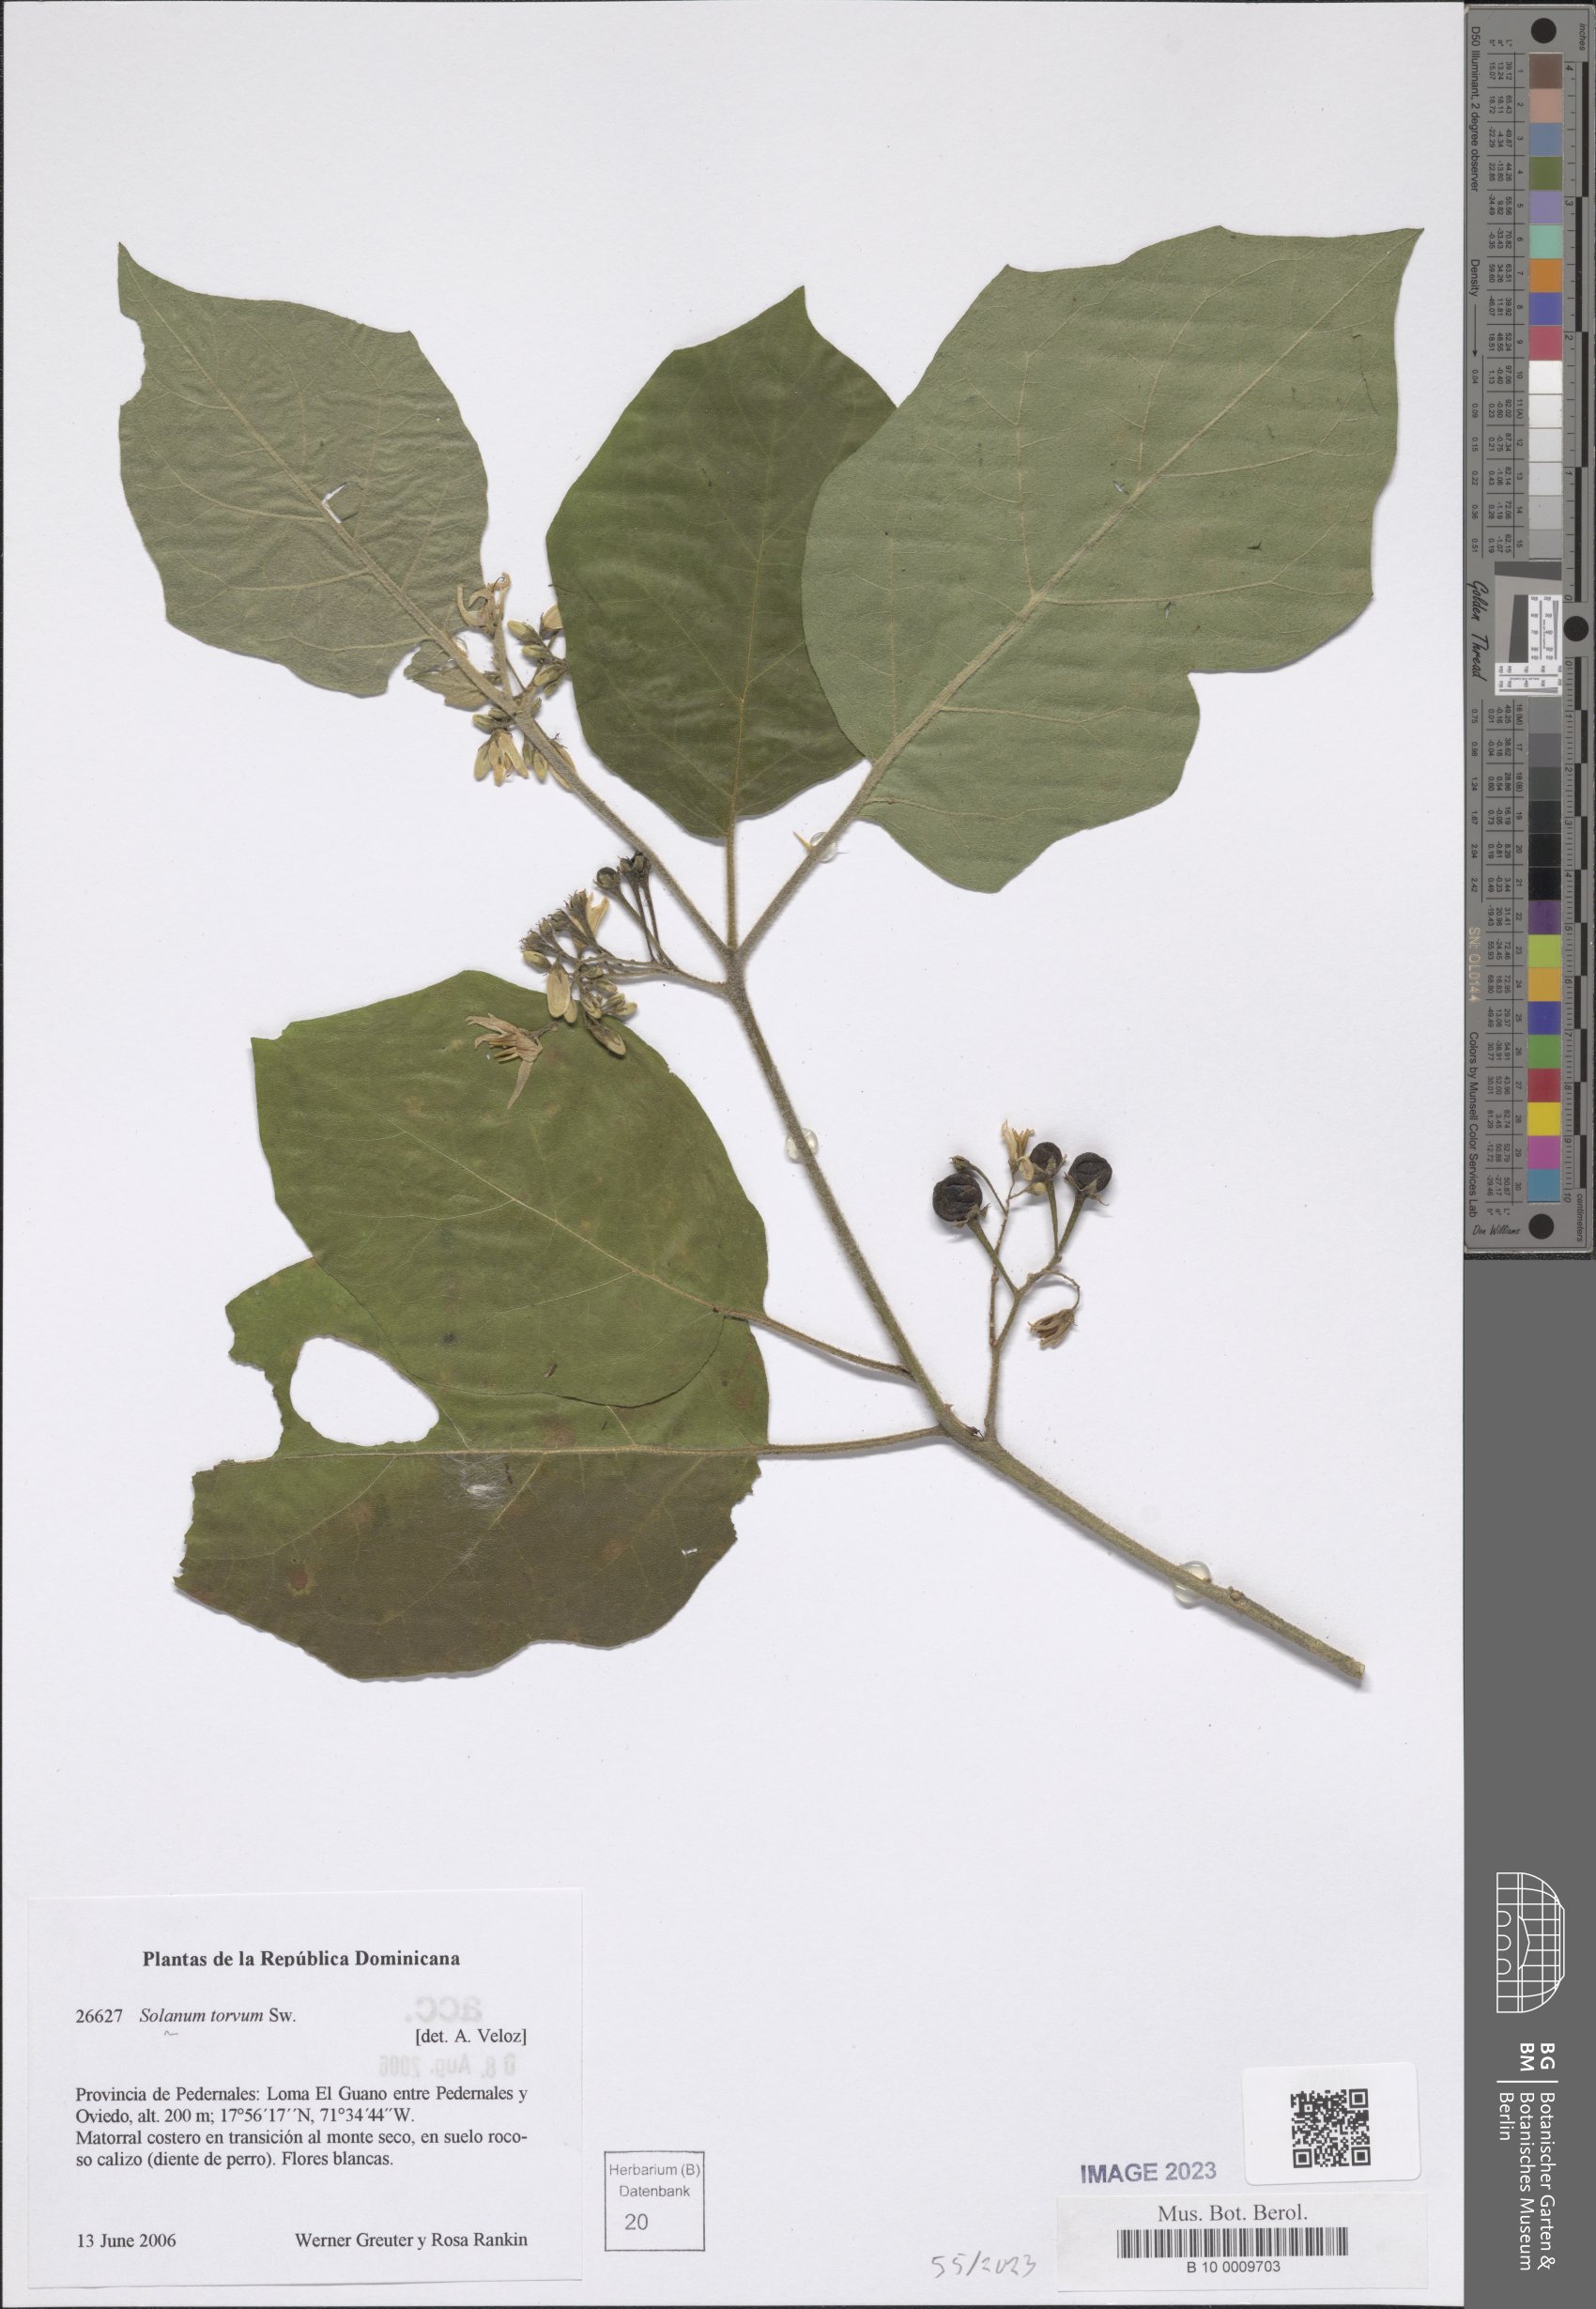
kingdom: Plantae
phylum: Tracheophyta
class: Magnoliopsida
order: Solanales
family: Solanaceae
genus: Solanum
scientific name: Solanum torvum
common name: Turkey berry
